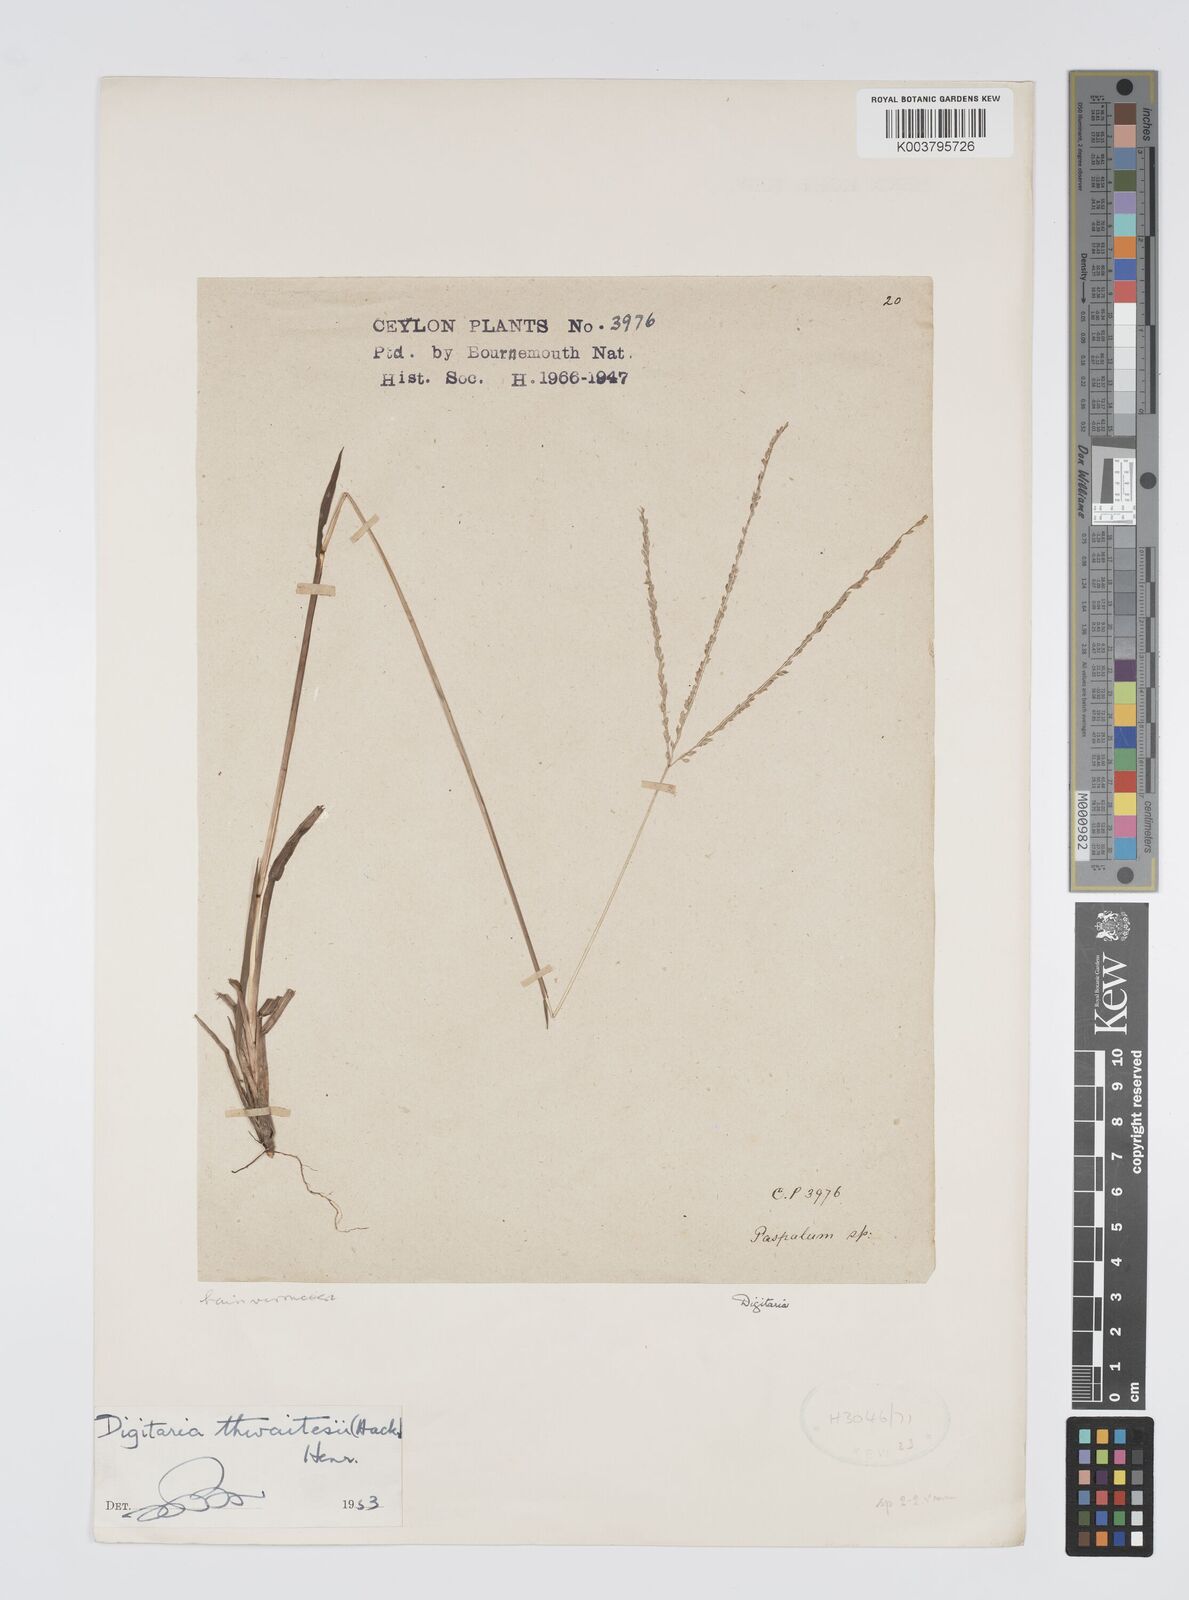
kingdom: Plantae
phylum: Tracheophyta
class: Liliopsida
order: Poales
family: Poaceae
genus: Digitaria
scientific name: Digitaria thwaitesii
